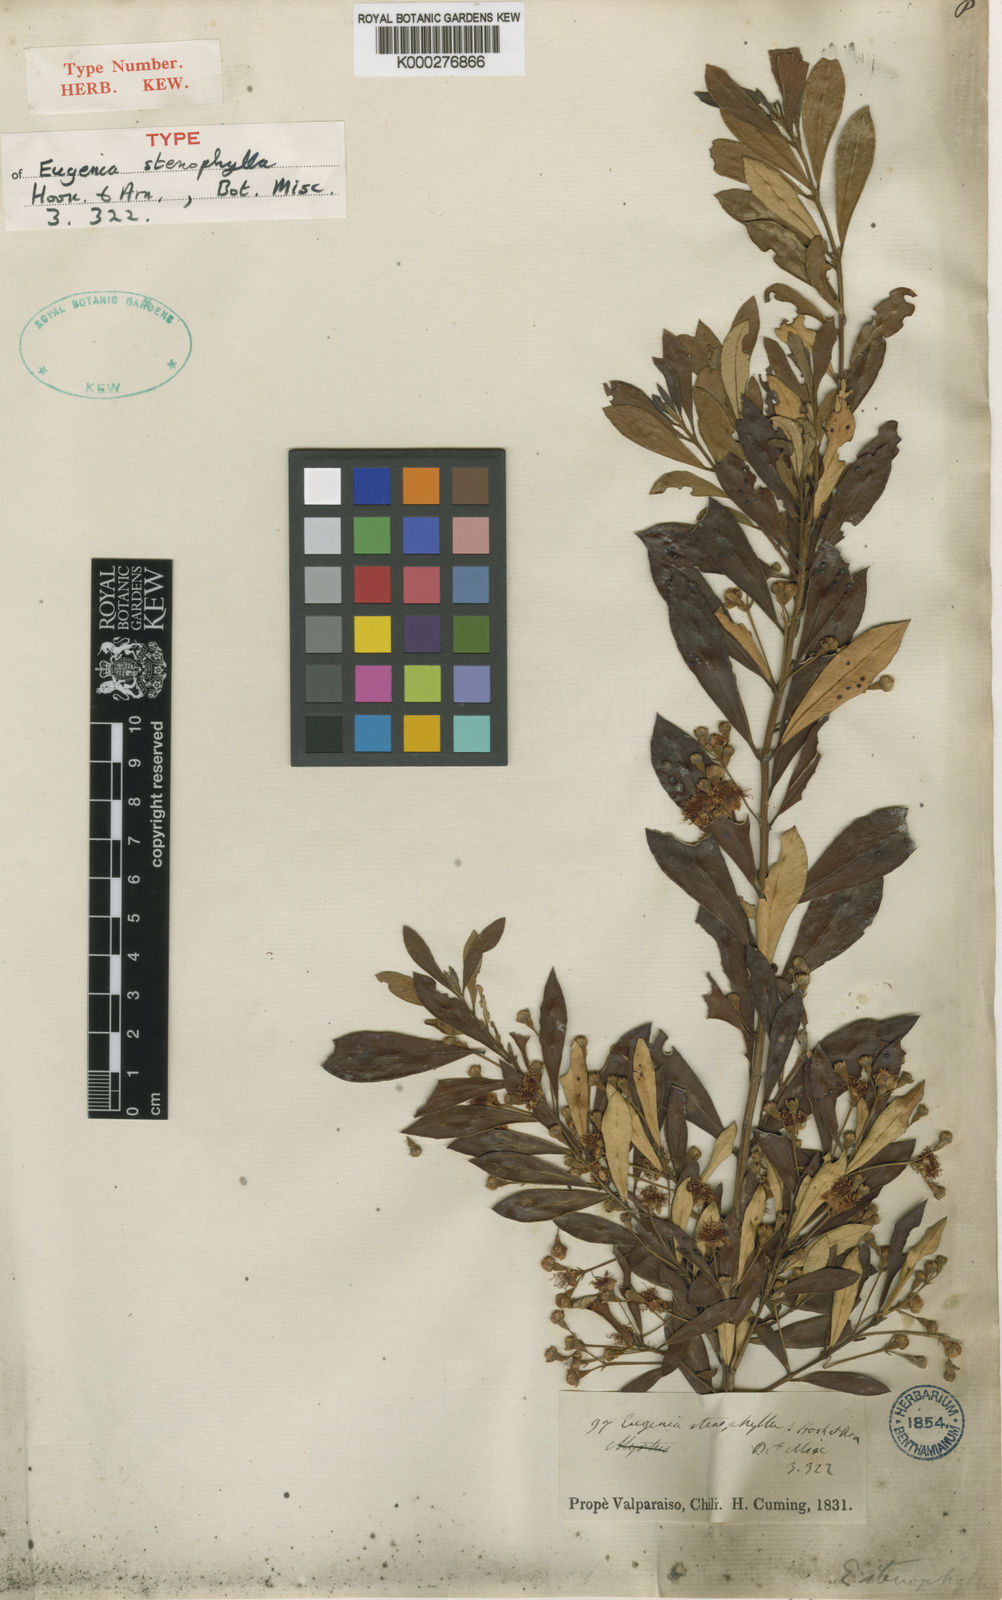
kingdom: Plantae
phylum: Tracheophyta
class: Magnoliopsida
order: Myrtales
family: Myrtaceae
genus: Myrceugenia
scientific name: Myrceugenia lanceolata
